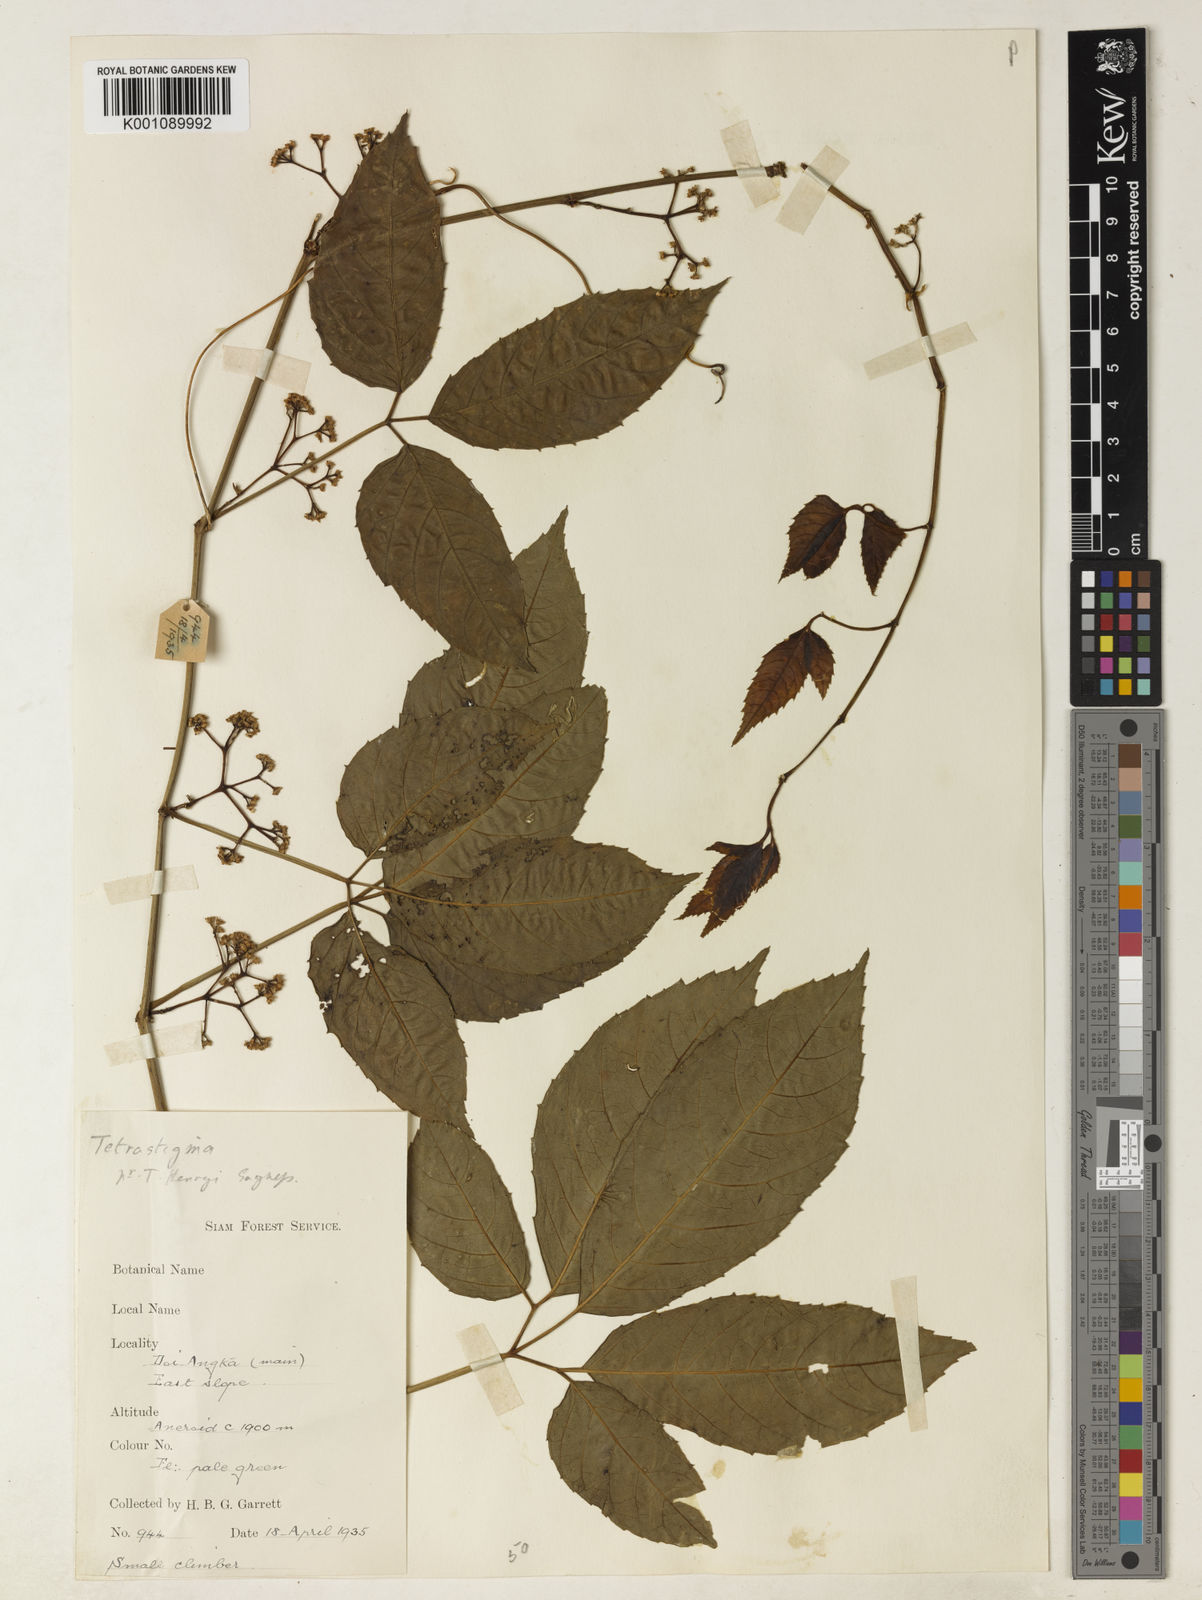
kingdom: Plantae
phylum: Tracheophyta
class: Magnoliopsida
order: Vitales
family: Vitaceae
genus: Tetrastigma
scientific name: Tetrastigma dubium
